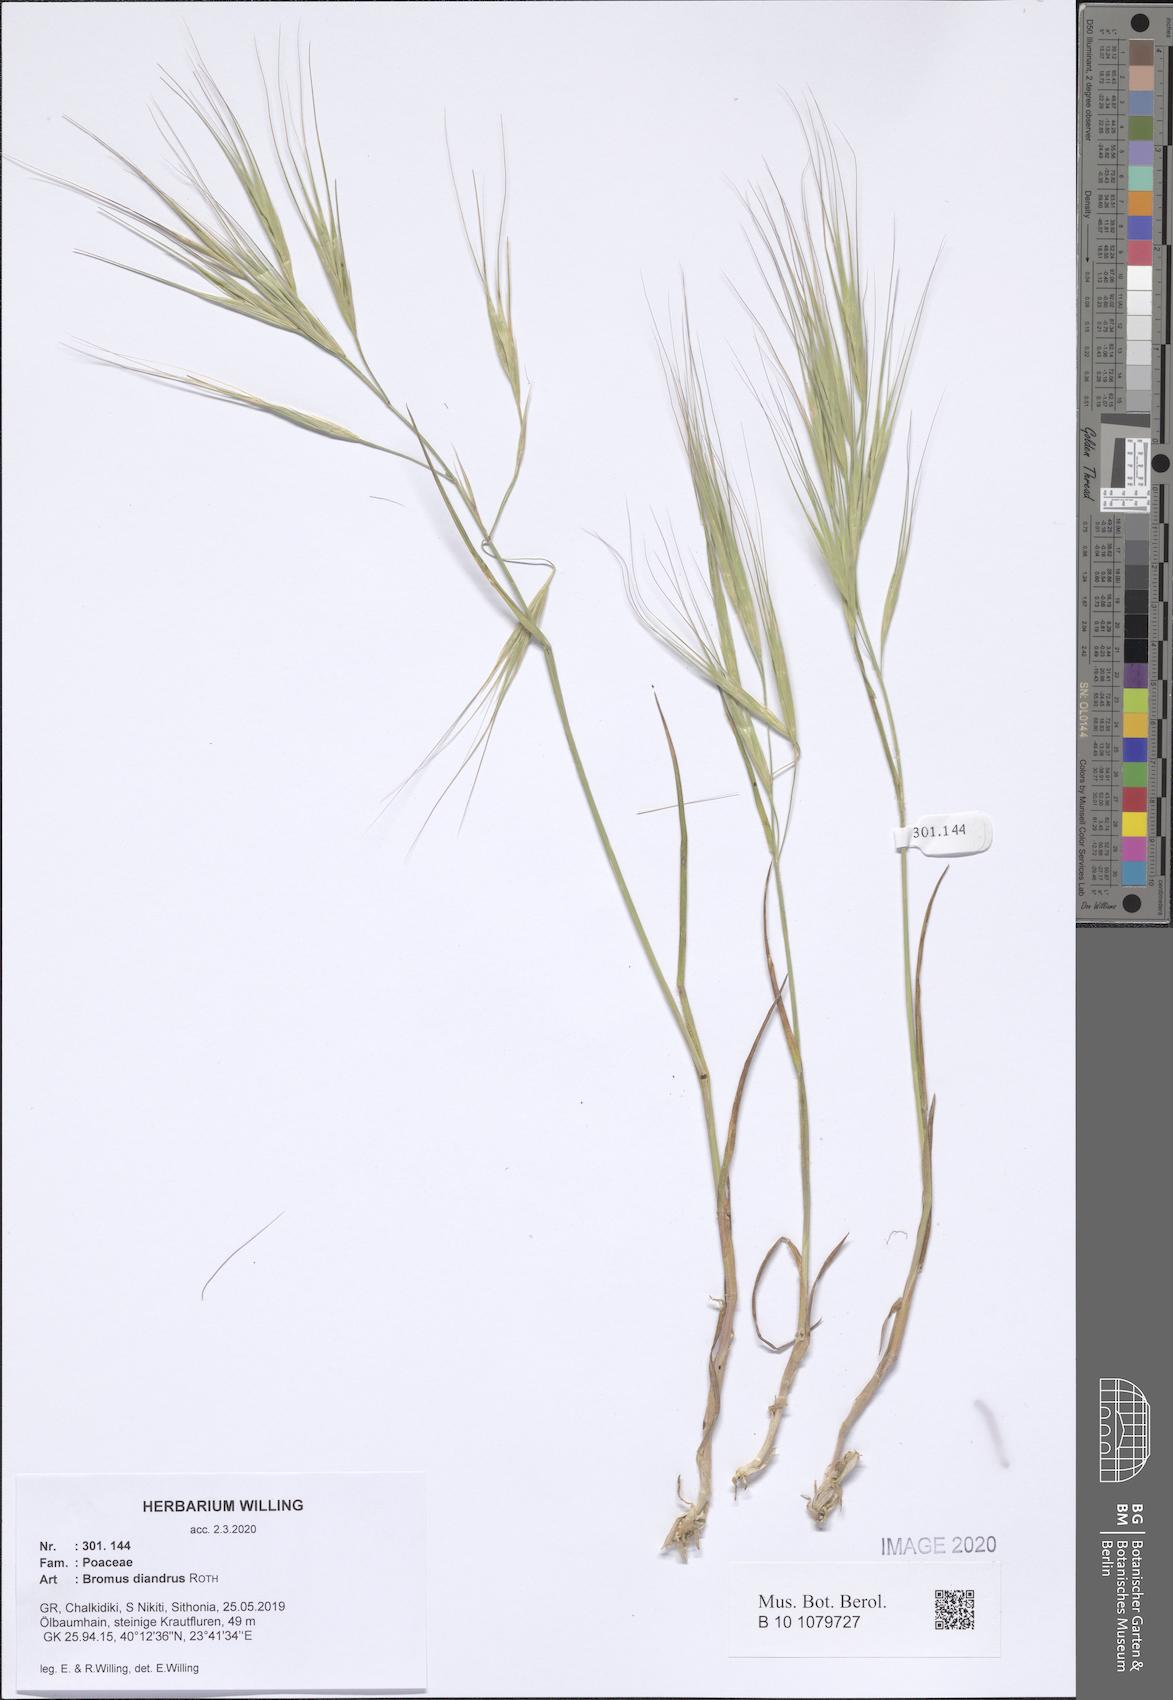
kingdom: Plantae
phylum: Tracheophyta
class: Liliopsida
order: Poales
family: Poaceae
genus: Bromus
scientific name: Bromus diandrus
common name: Ripgut brome
